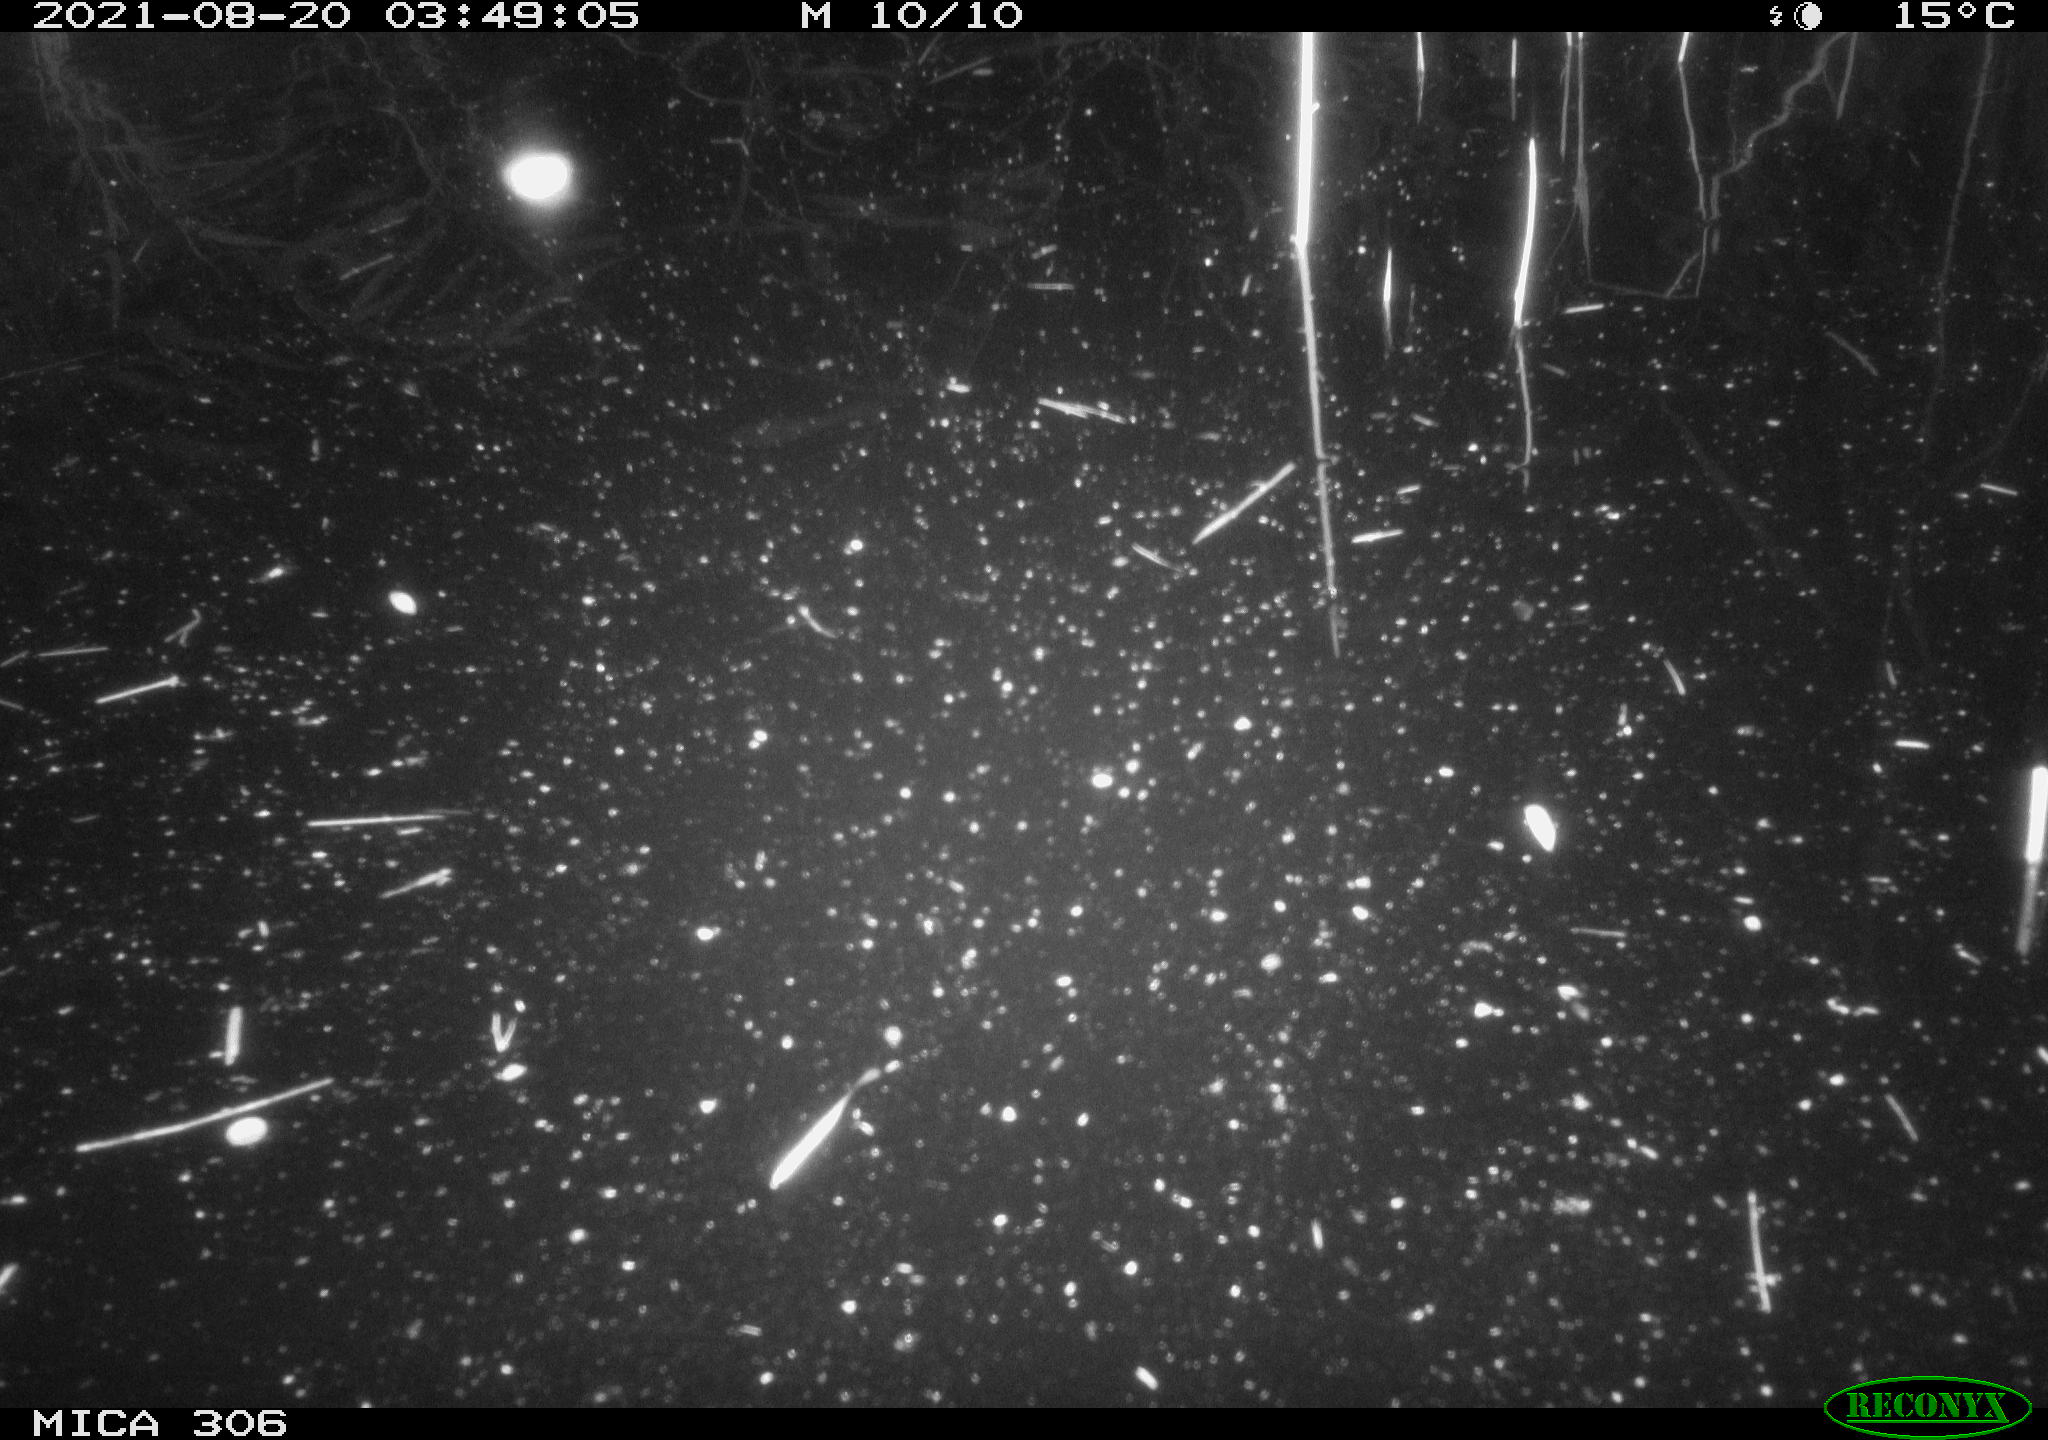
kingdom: Animalia
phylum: Chordata
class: Mammalia
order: Rodentia
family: Muridae
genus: Rattus
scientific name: Rattus norvegicus
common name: Brown rat
